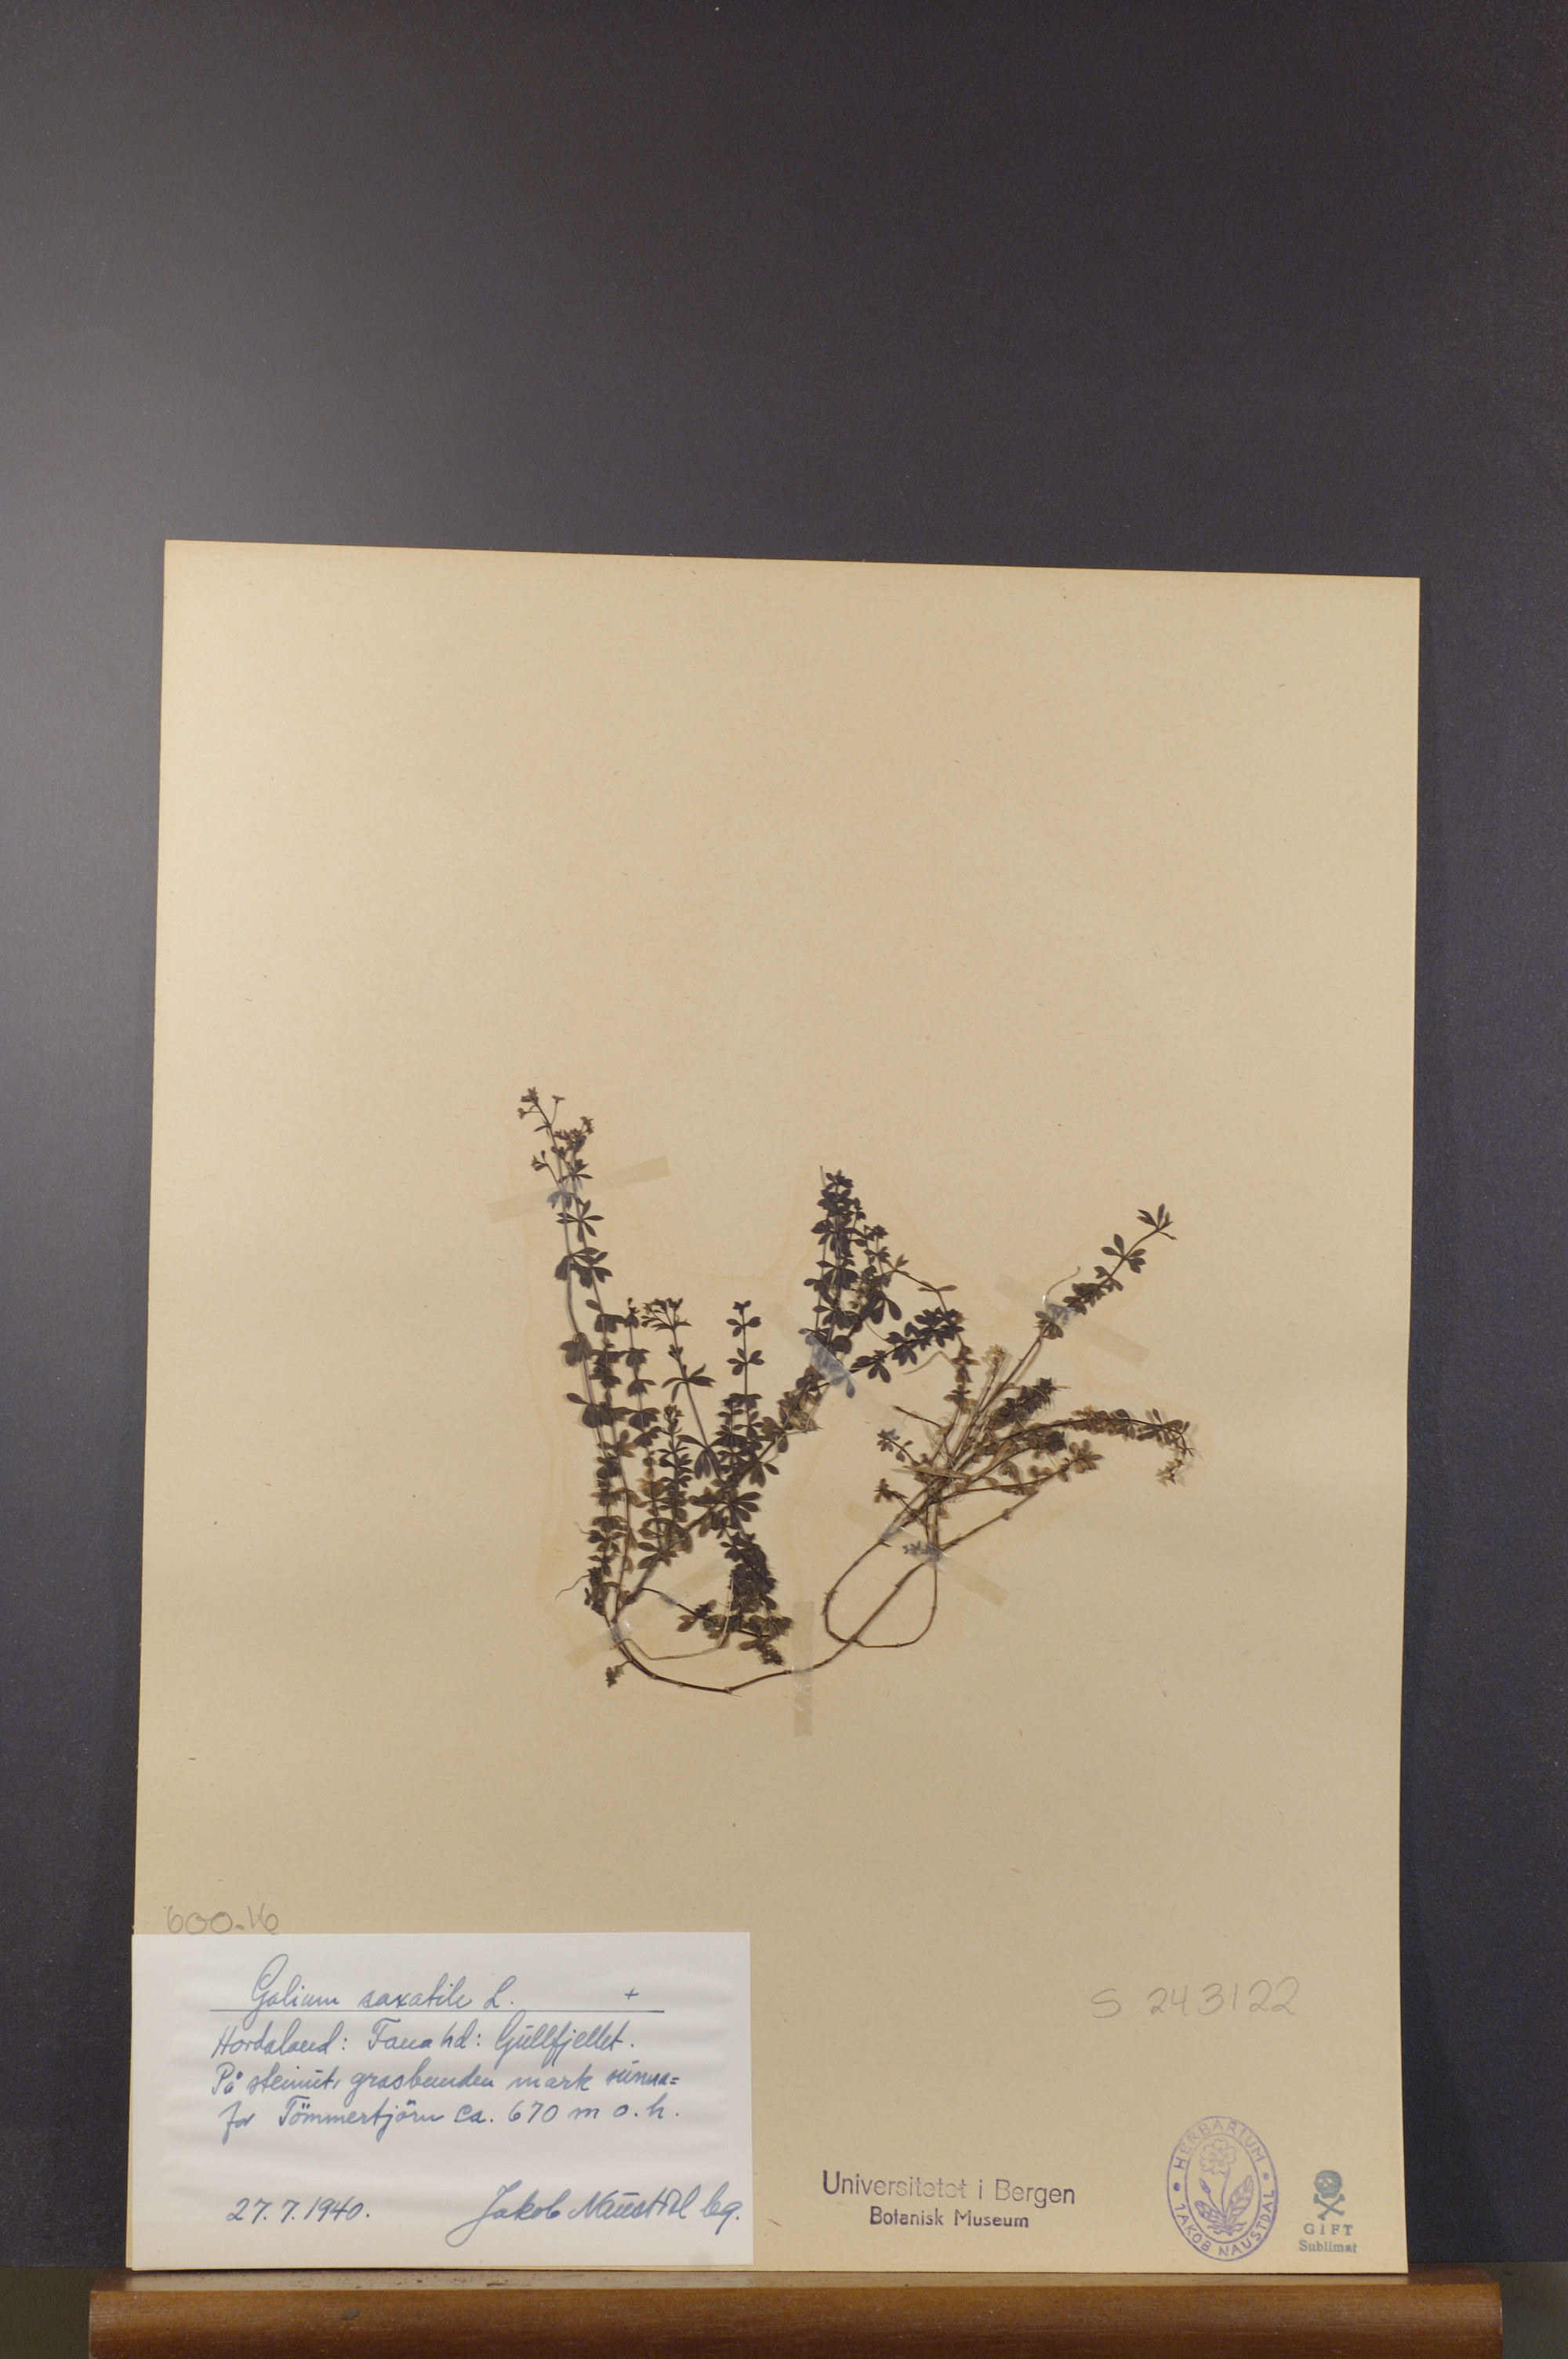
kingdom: Plantae
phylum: Tracheophyta
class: Magnoliopsida
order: Gentianales
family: Rubiaceae
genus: Galium
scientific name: Galium saxatile
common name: Heath bedstraw
